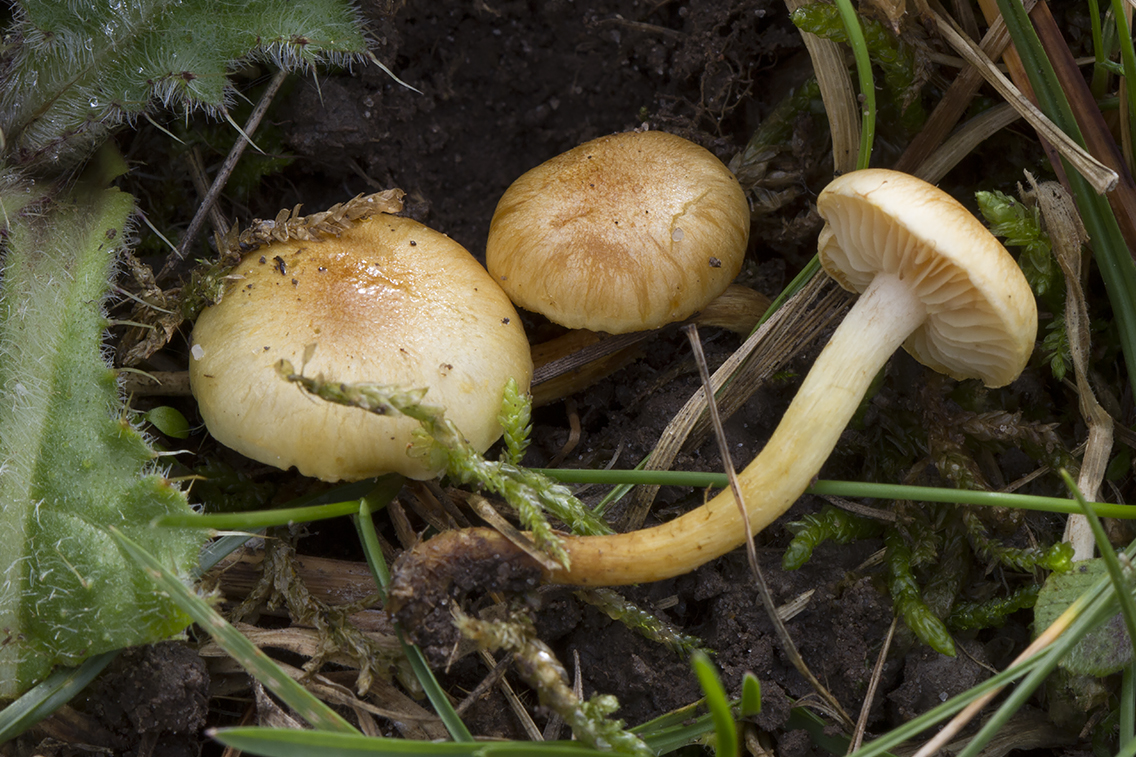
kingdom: Fungi
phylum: Basidiomycota
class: Agaricomycetes
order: Agaricales
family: Strophariaceae
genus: Pholiota
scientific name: Pholiota conissans
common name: pile-skælhat
